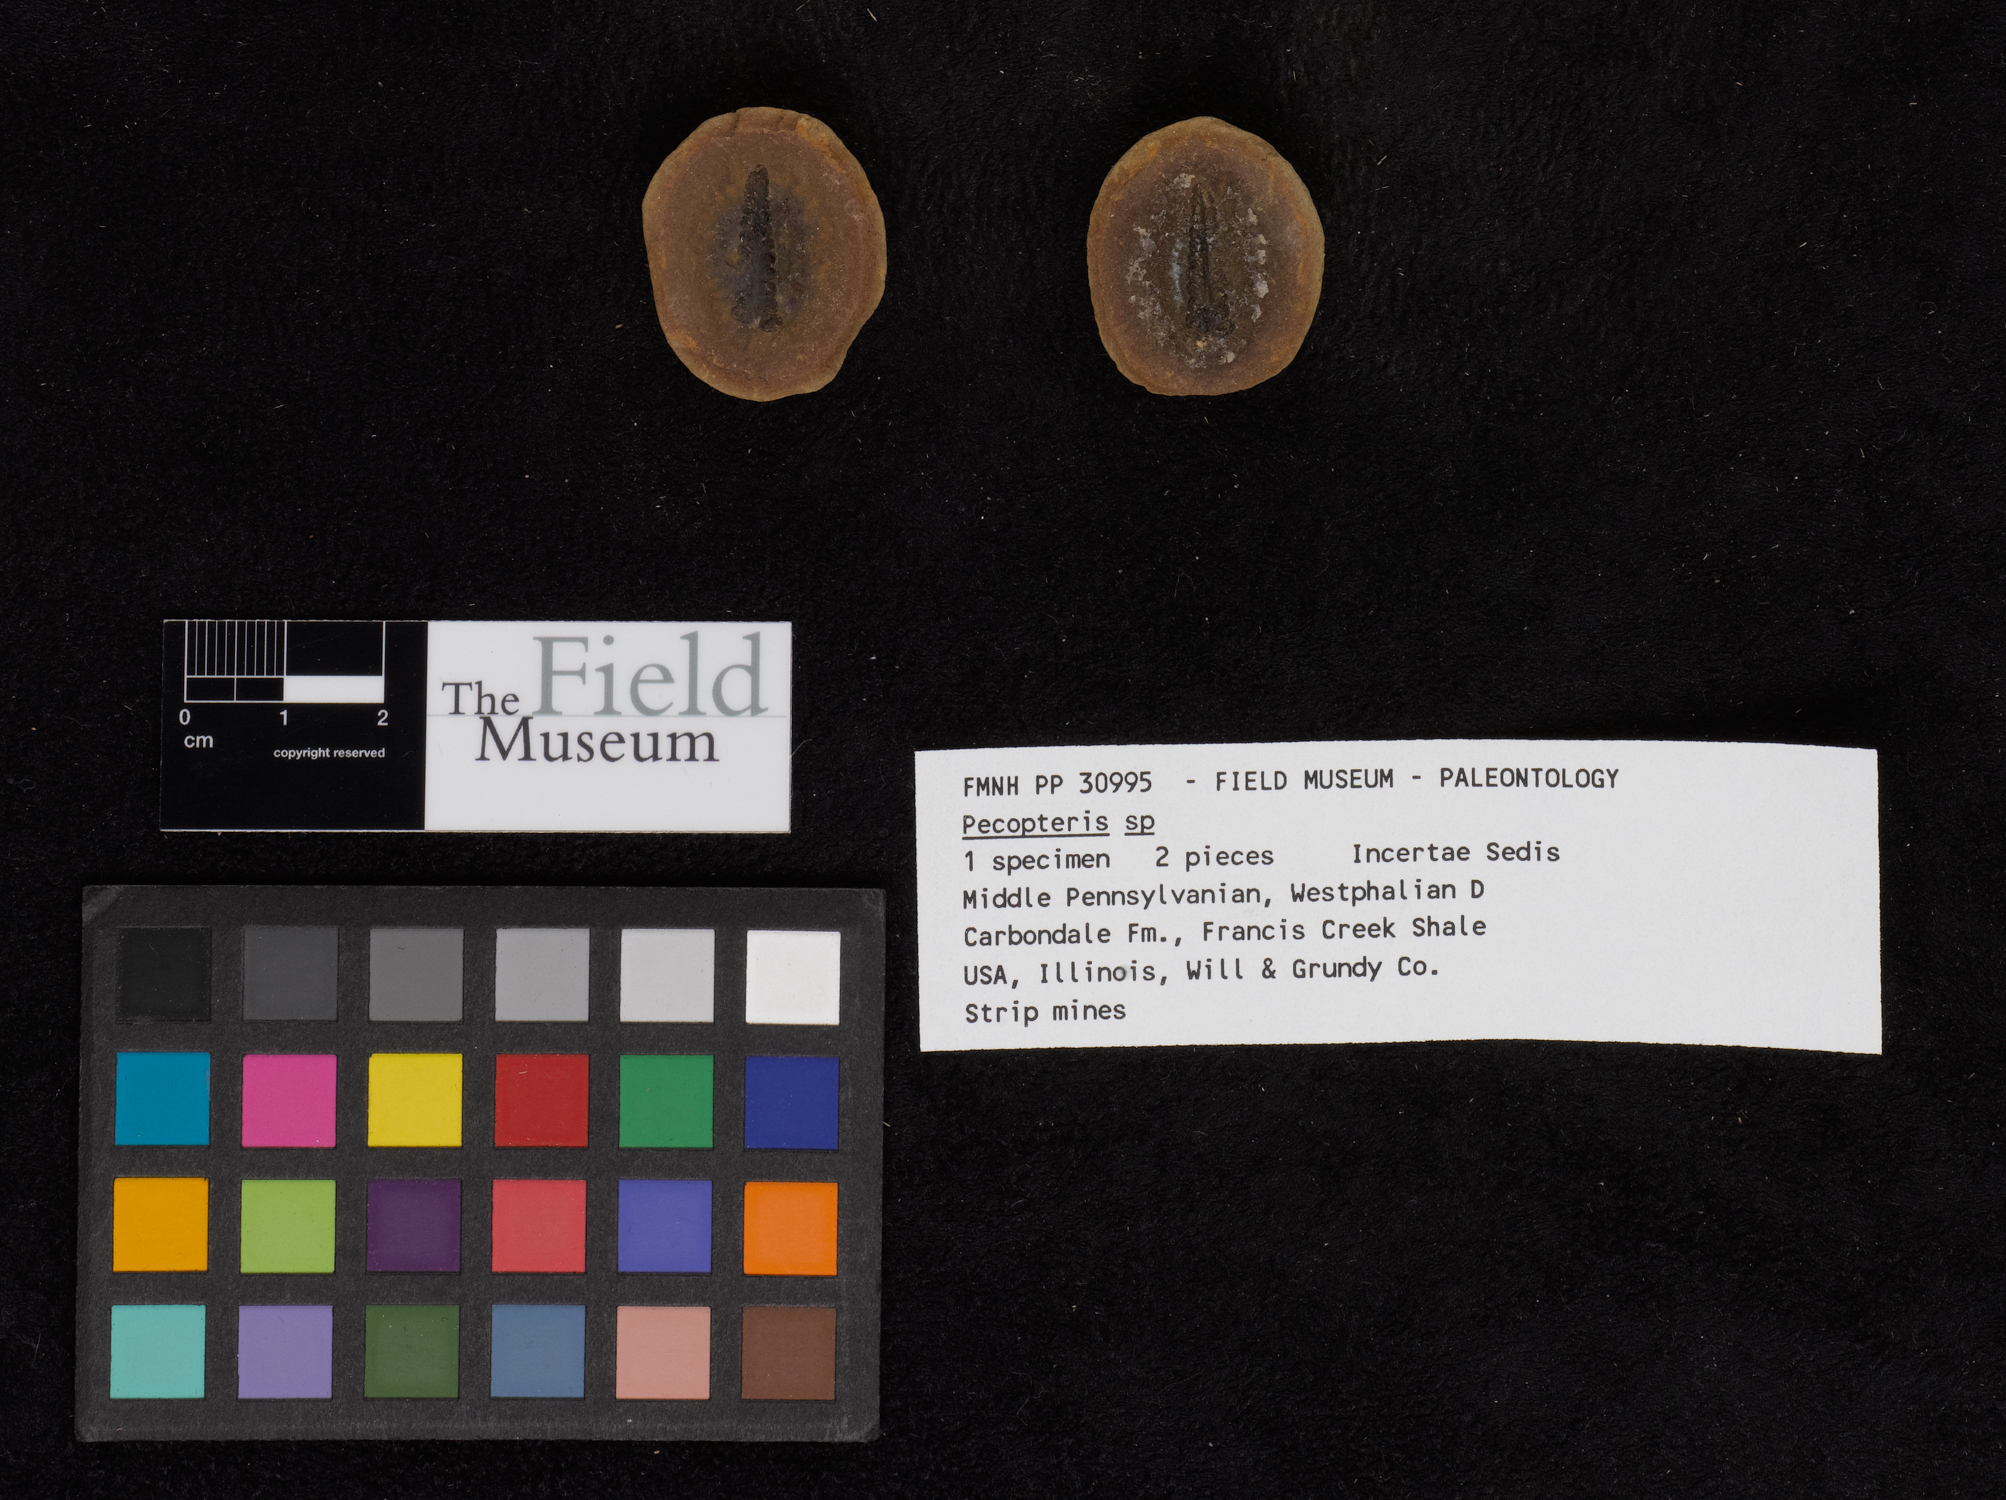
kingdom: Plantae
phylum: Tracheophyta
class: Polypodiopsida
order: Marattiales
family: Asterothecaceae
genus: Pecopteris
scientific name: Pecopteris
